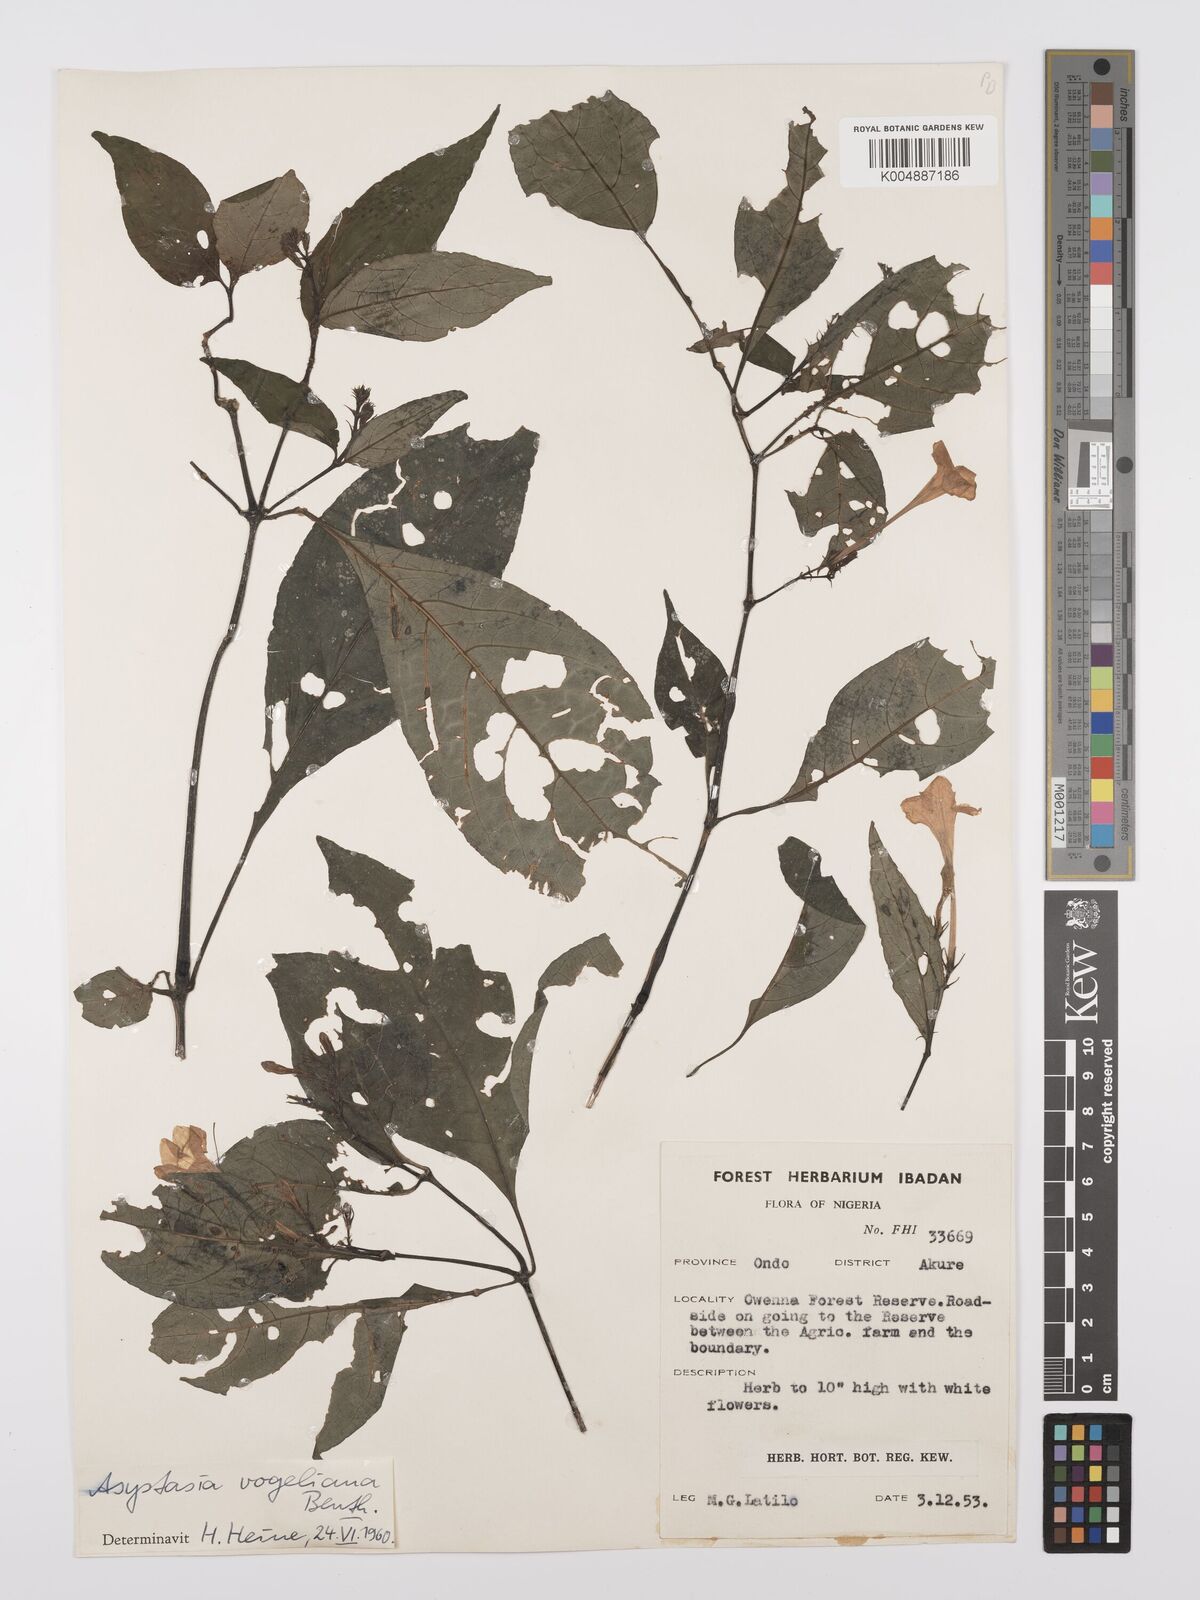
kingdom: Plantae
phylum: Tracheophyta
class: Magnoliopsida
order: Lamiales
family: Acanthaceae
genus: Asystasia
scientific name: Asystasia vogeliana
